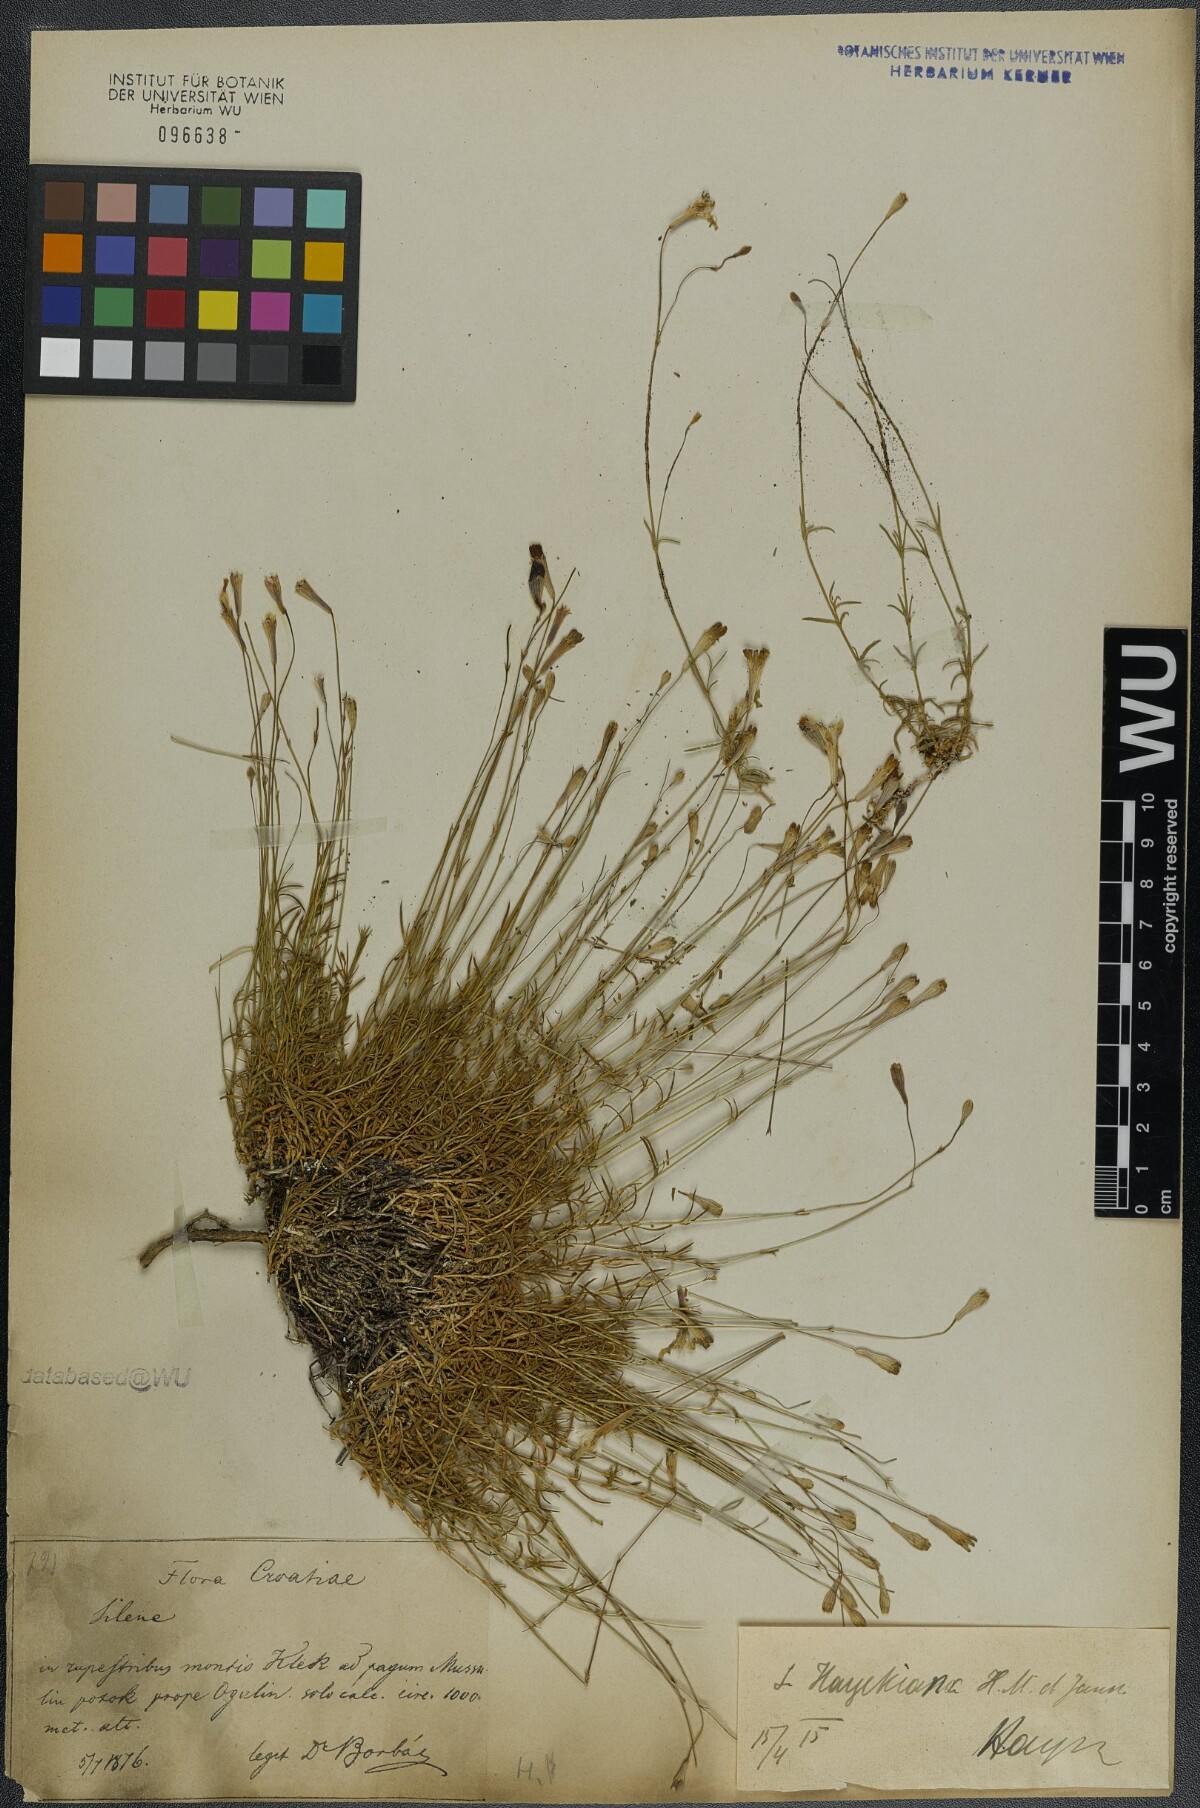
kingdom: Plantae
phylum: Tracheophyta
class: Magnoliopsida
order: Caryophyllales
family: Caryophyllaceae
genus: Silene
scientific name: Silene hayekiana
